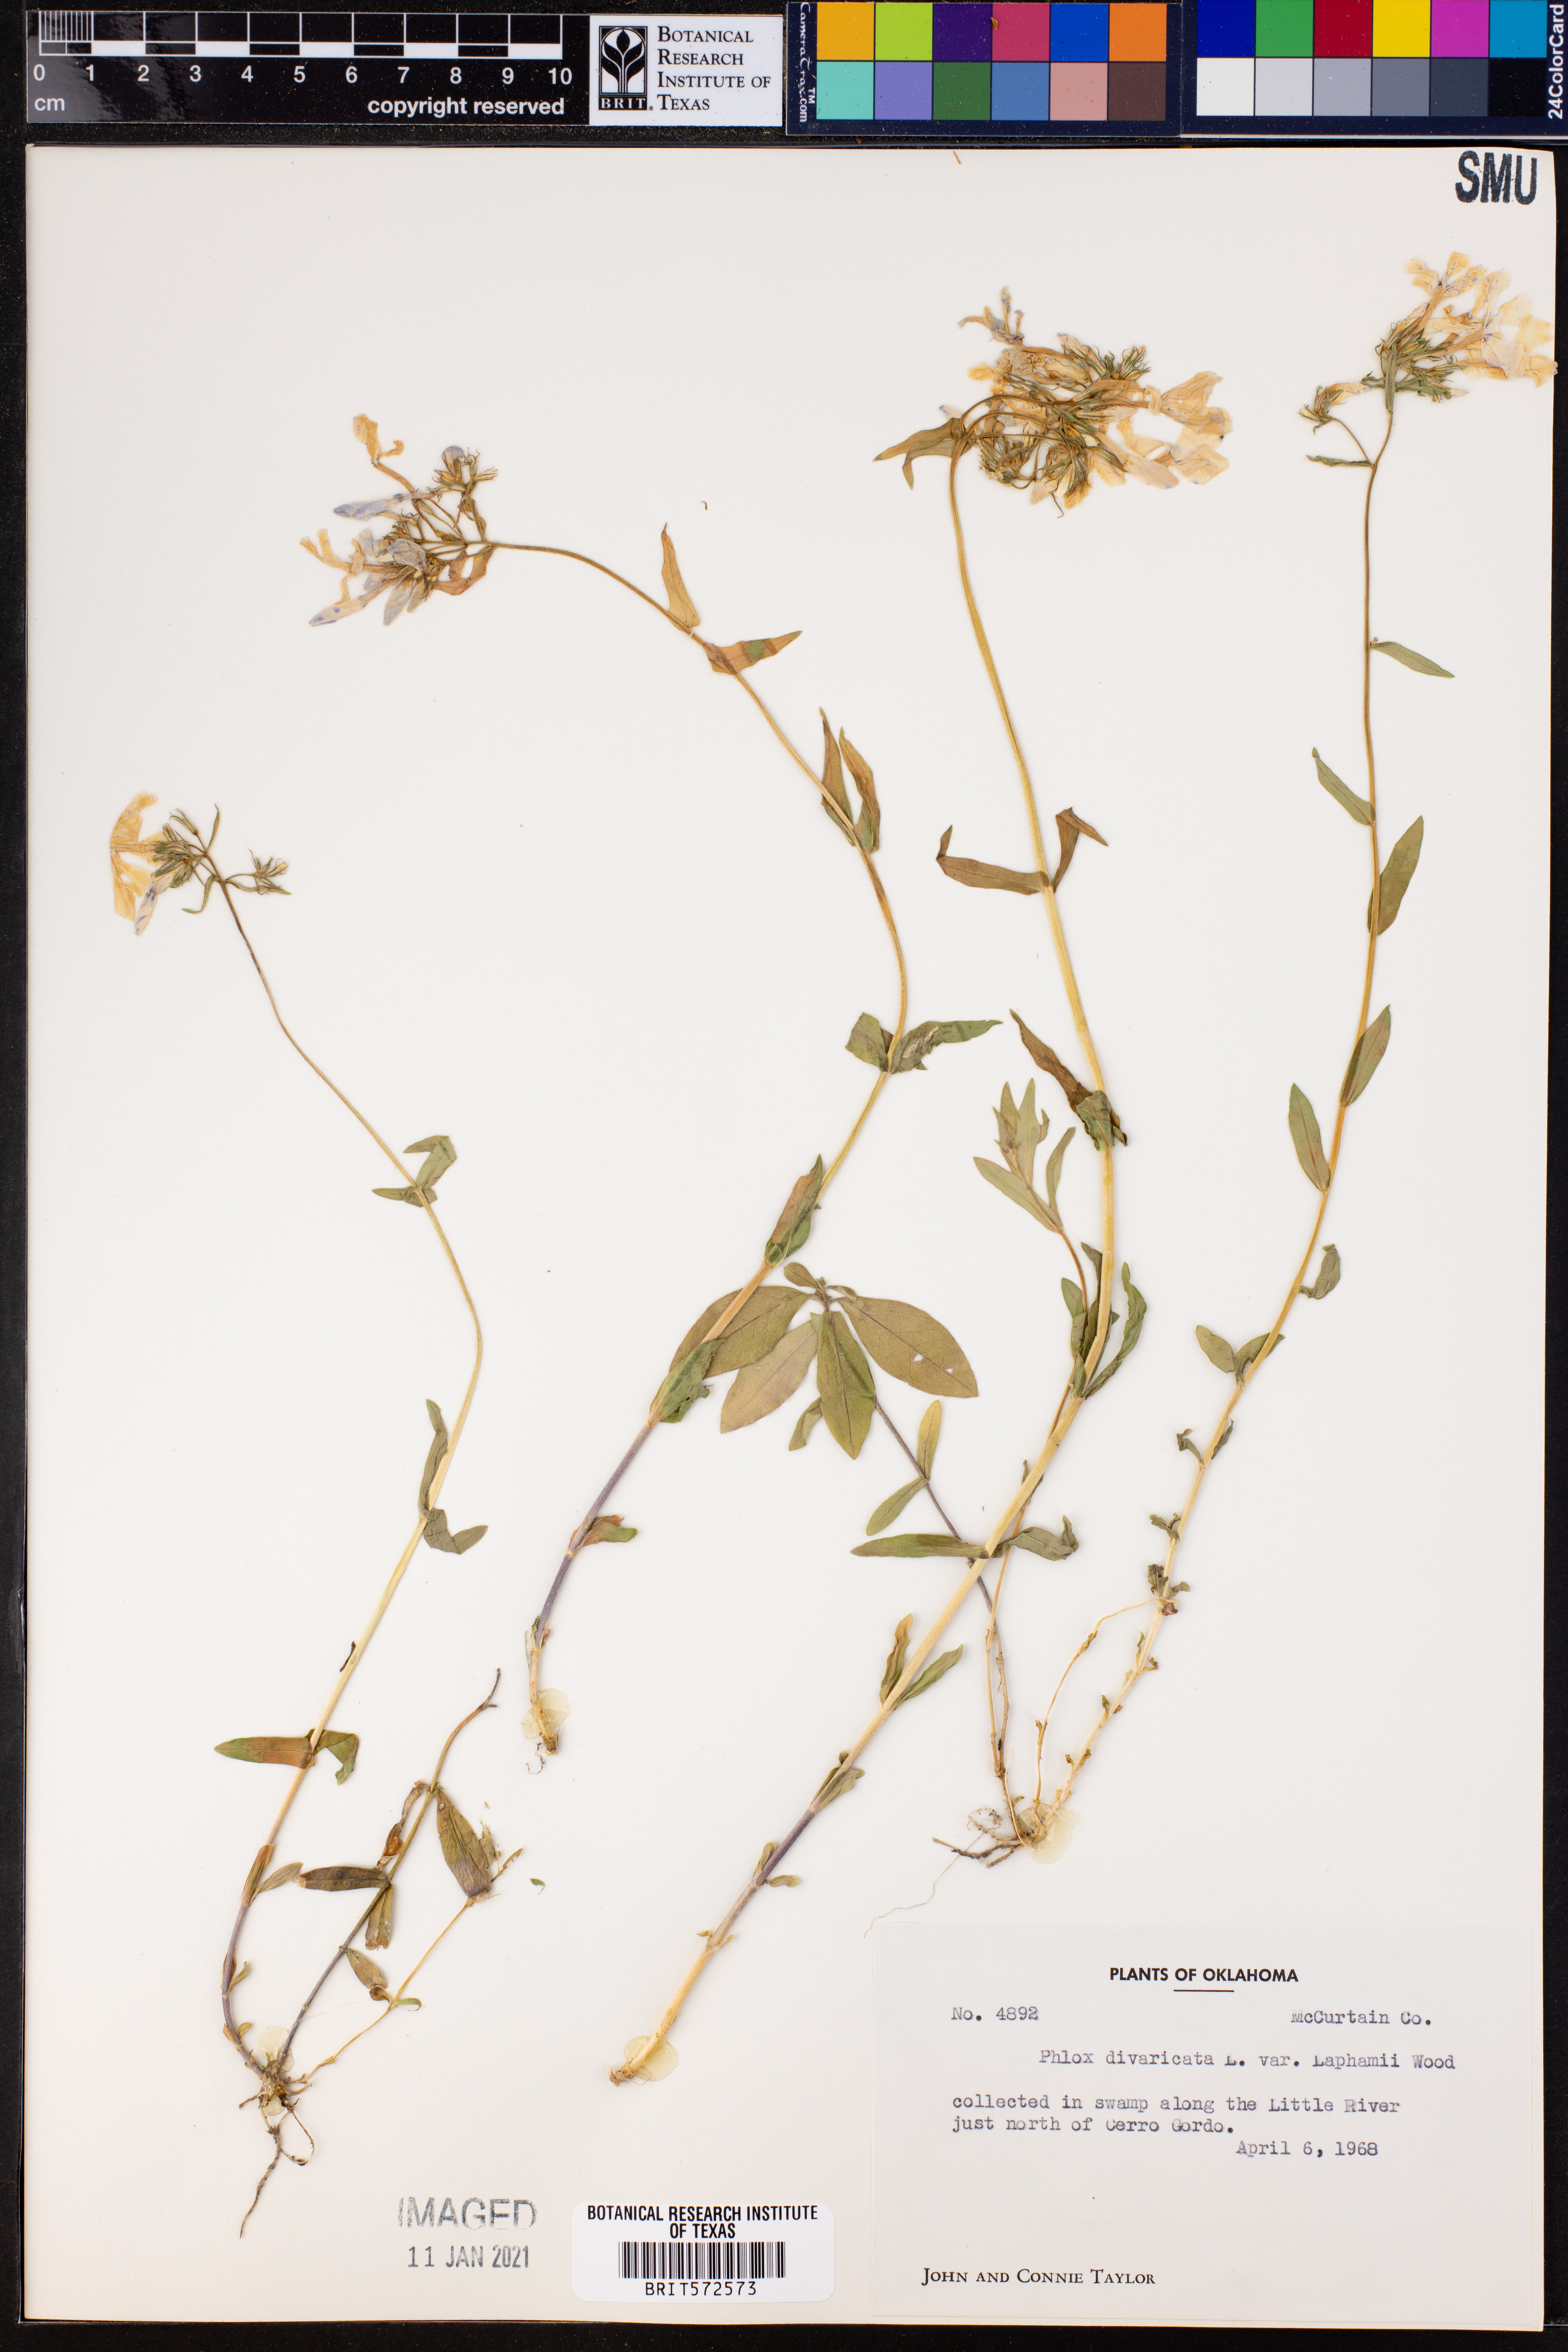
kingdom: Plantae
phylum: Tracheophyta
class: Magnoliopsida
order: Ericales
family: Polemoniaceae
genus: Phlox
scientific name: Phlox divaricata
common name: Blue phlox
